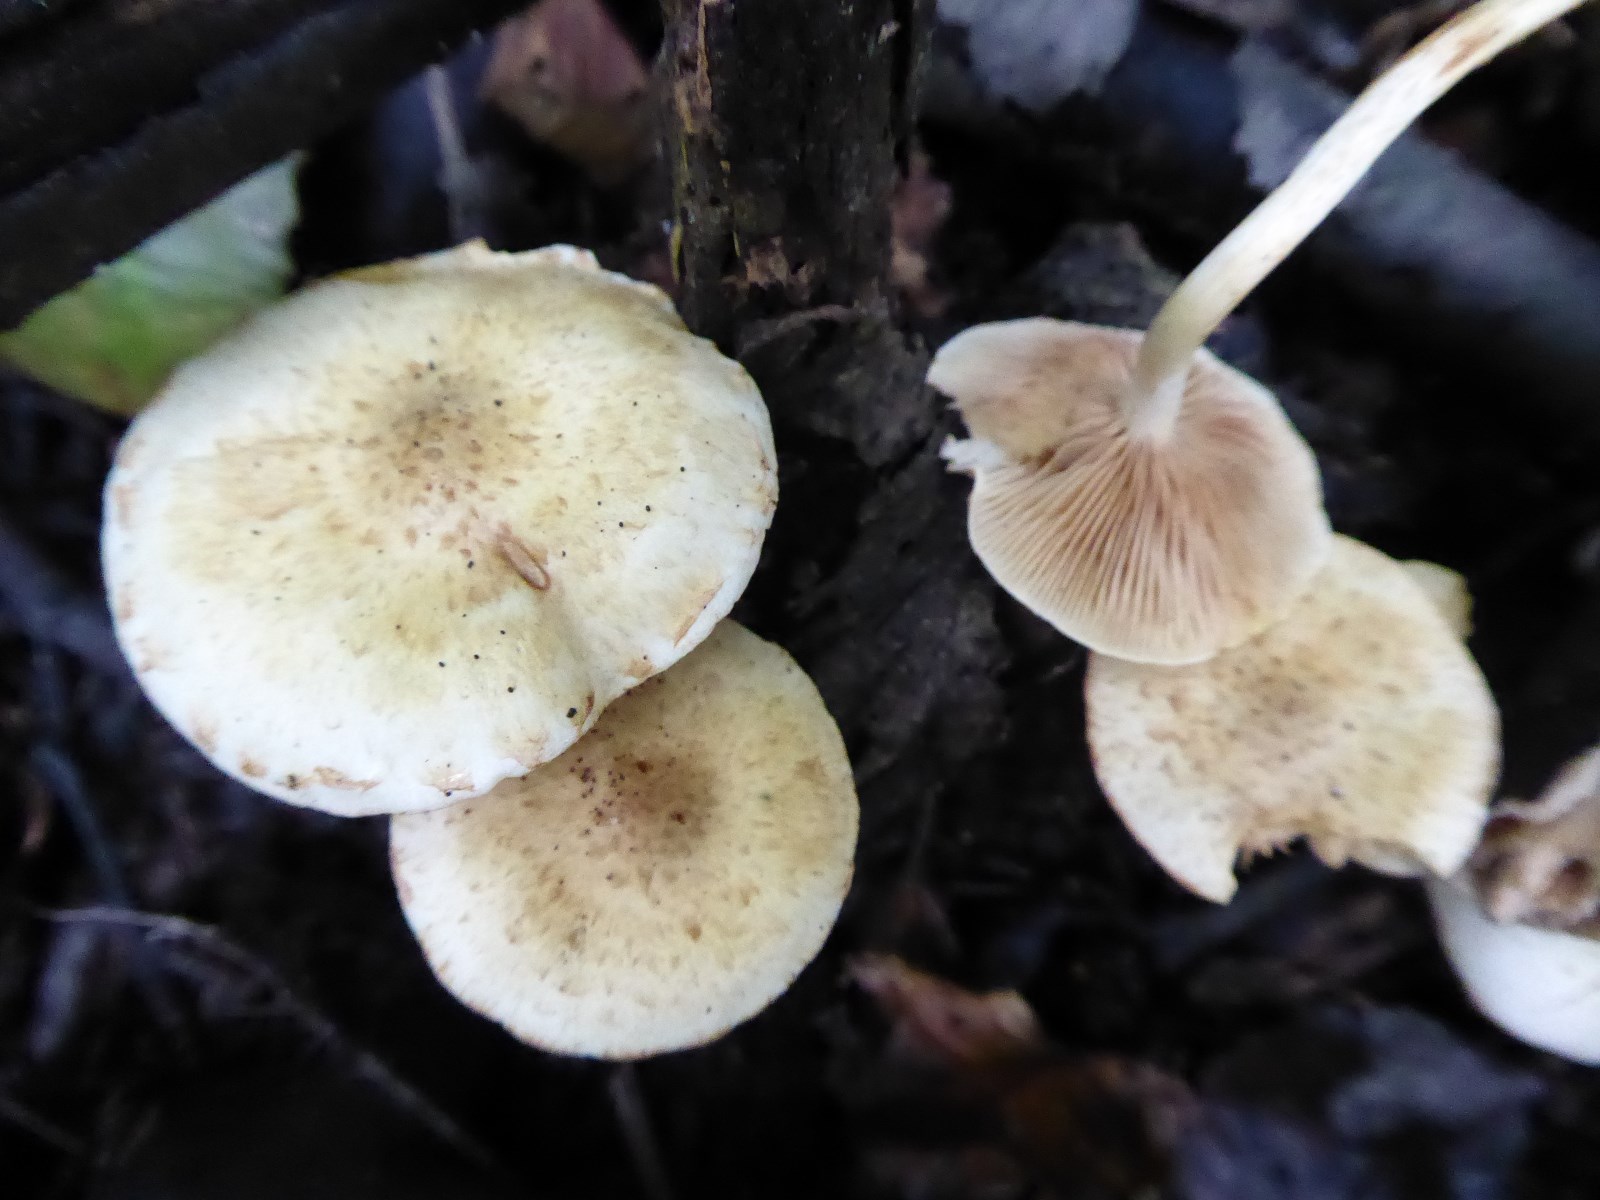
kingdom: Fungi
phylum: Basidiomycota
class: Agaricomycetes
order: Agaricales
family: Strophariaceae
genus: Pholiota
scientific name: Pholiota gummosa
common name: grøngul skælhat
